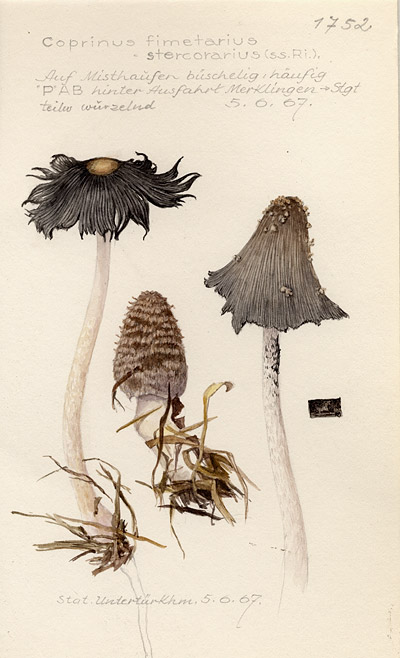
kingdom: Fungi
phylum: Basidiomycota
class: Agaricomycetes
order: Agaricales
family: Psathyrellaceae
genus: Coprinopsis
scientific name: Coprinopsis cinerea
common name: Grey inkcap
